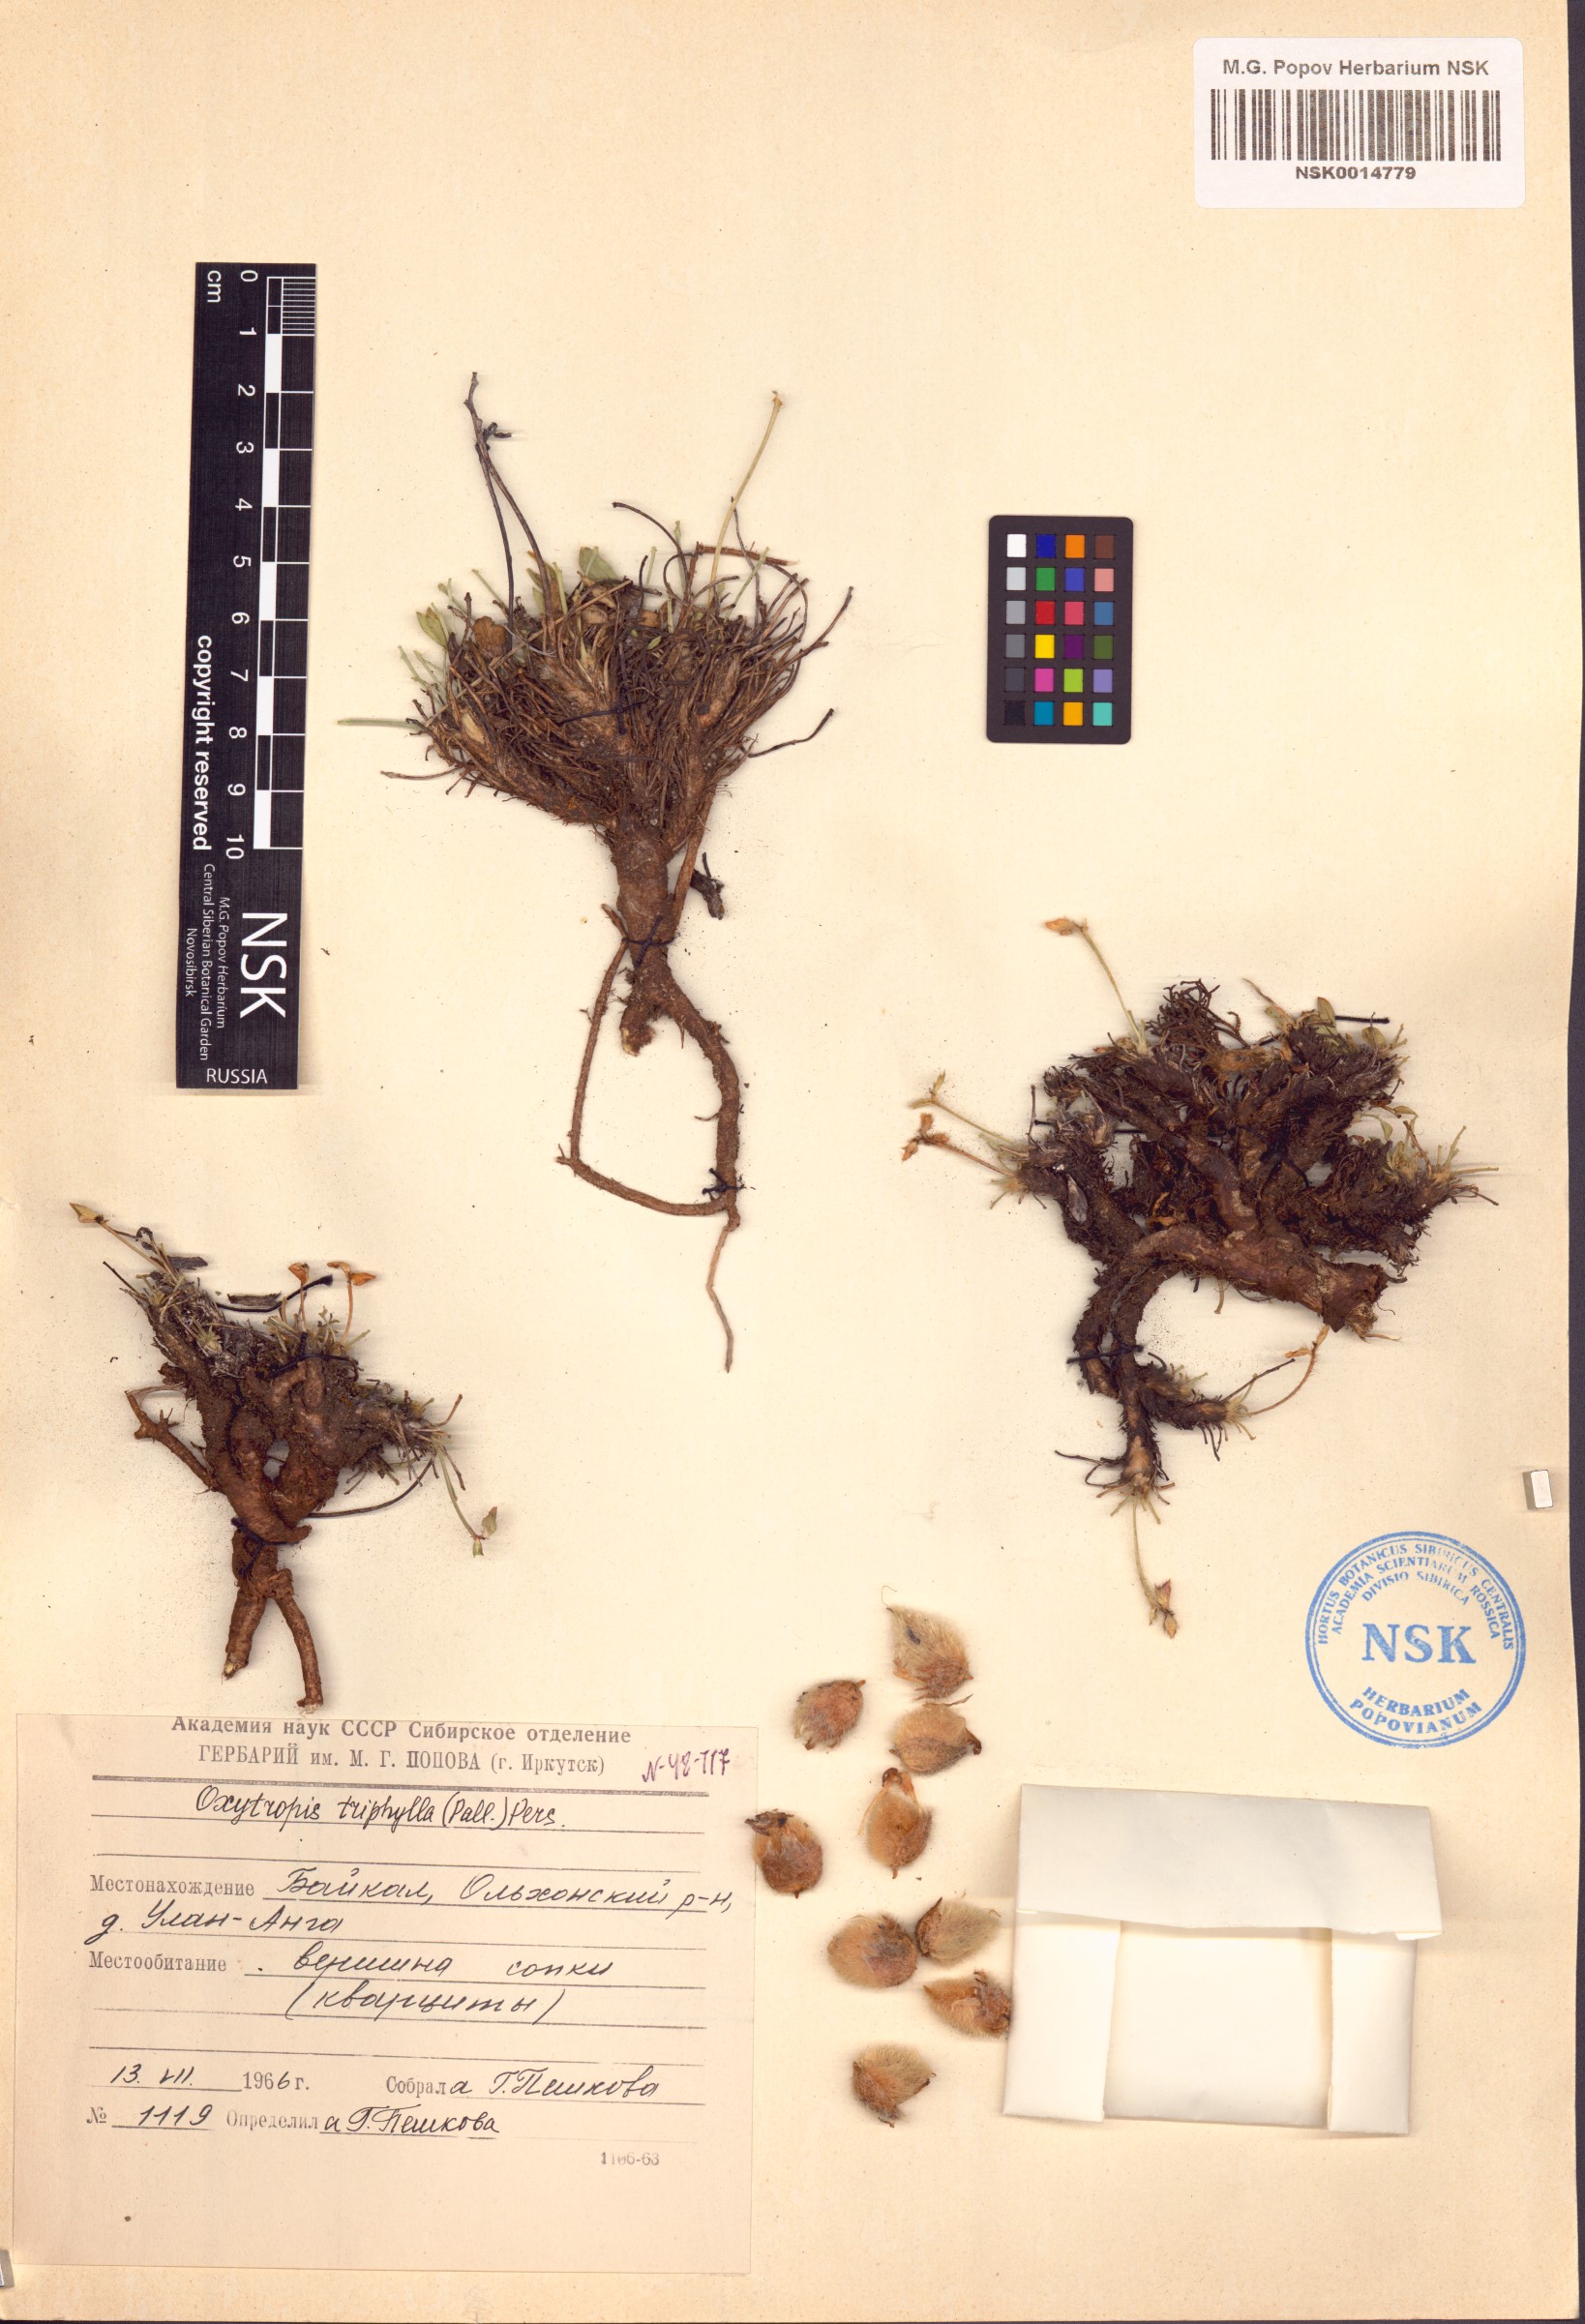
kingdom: Plantae
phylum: Tracheophyta
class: Magnoliopsida
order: Fabales
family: Fabaceae
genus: Oxytropis
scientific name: Oxytropis triphylla
